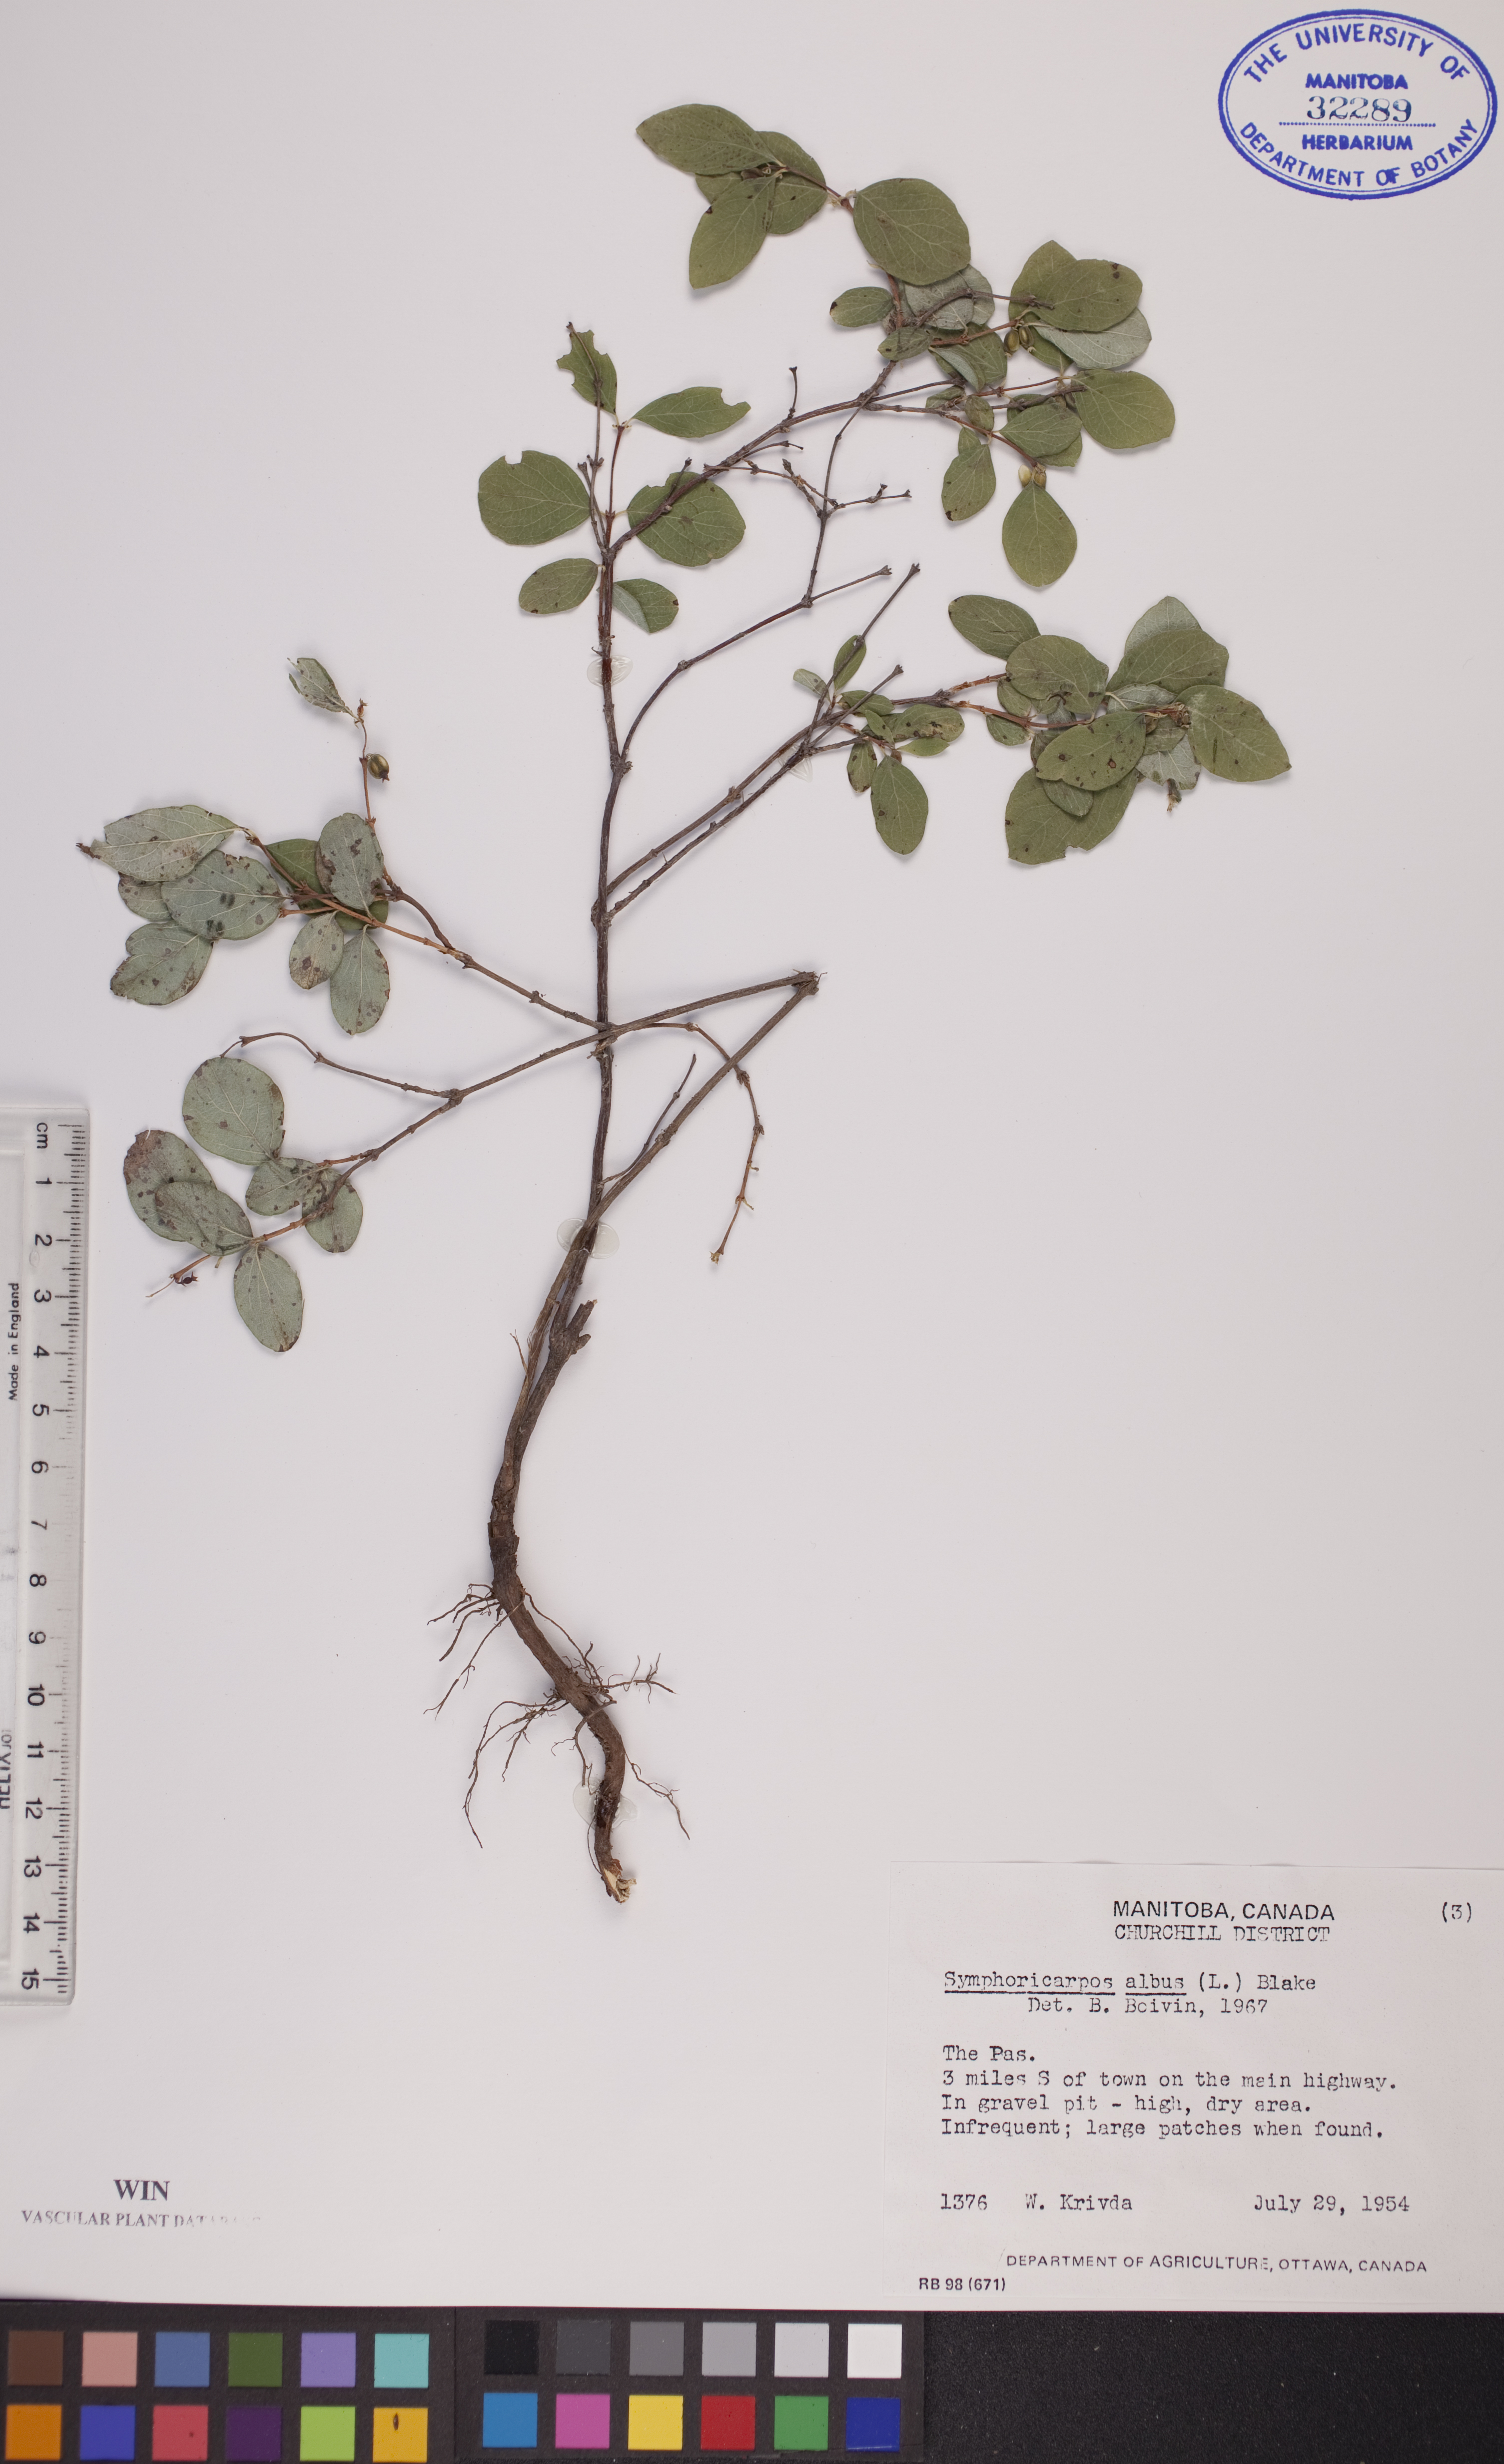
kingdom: Plantae
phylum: Tracheophyta
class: Magnoliopsida
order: Dipsacales
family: Caprifoliaceae
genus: Symphoricarpos
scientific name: Symphoricarpos albus
